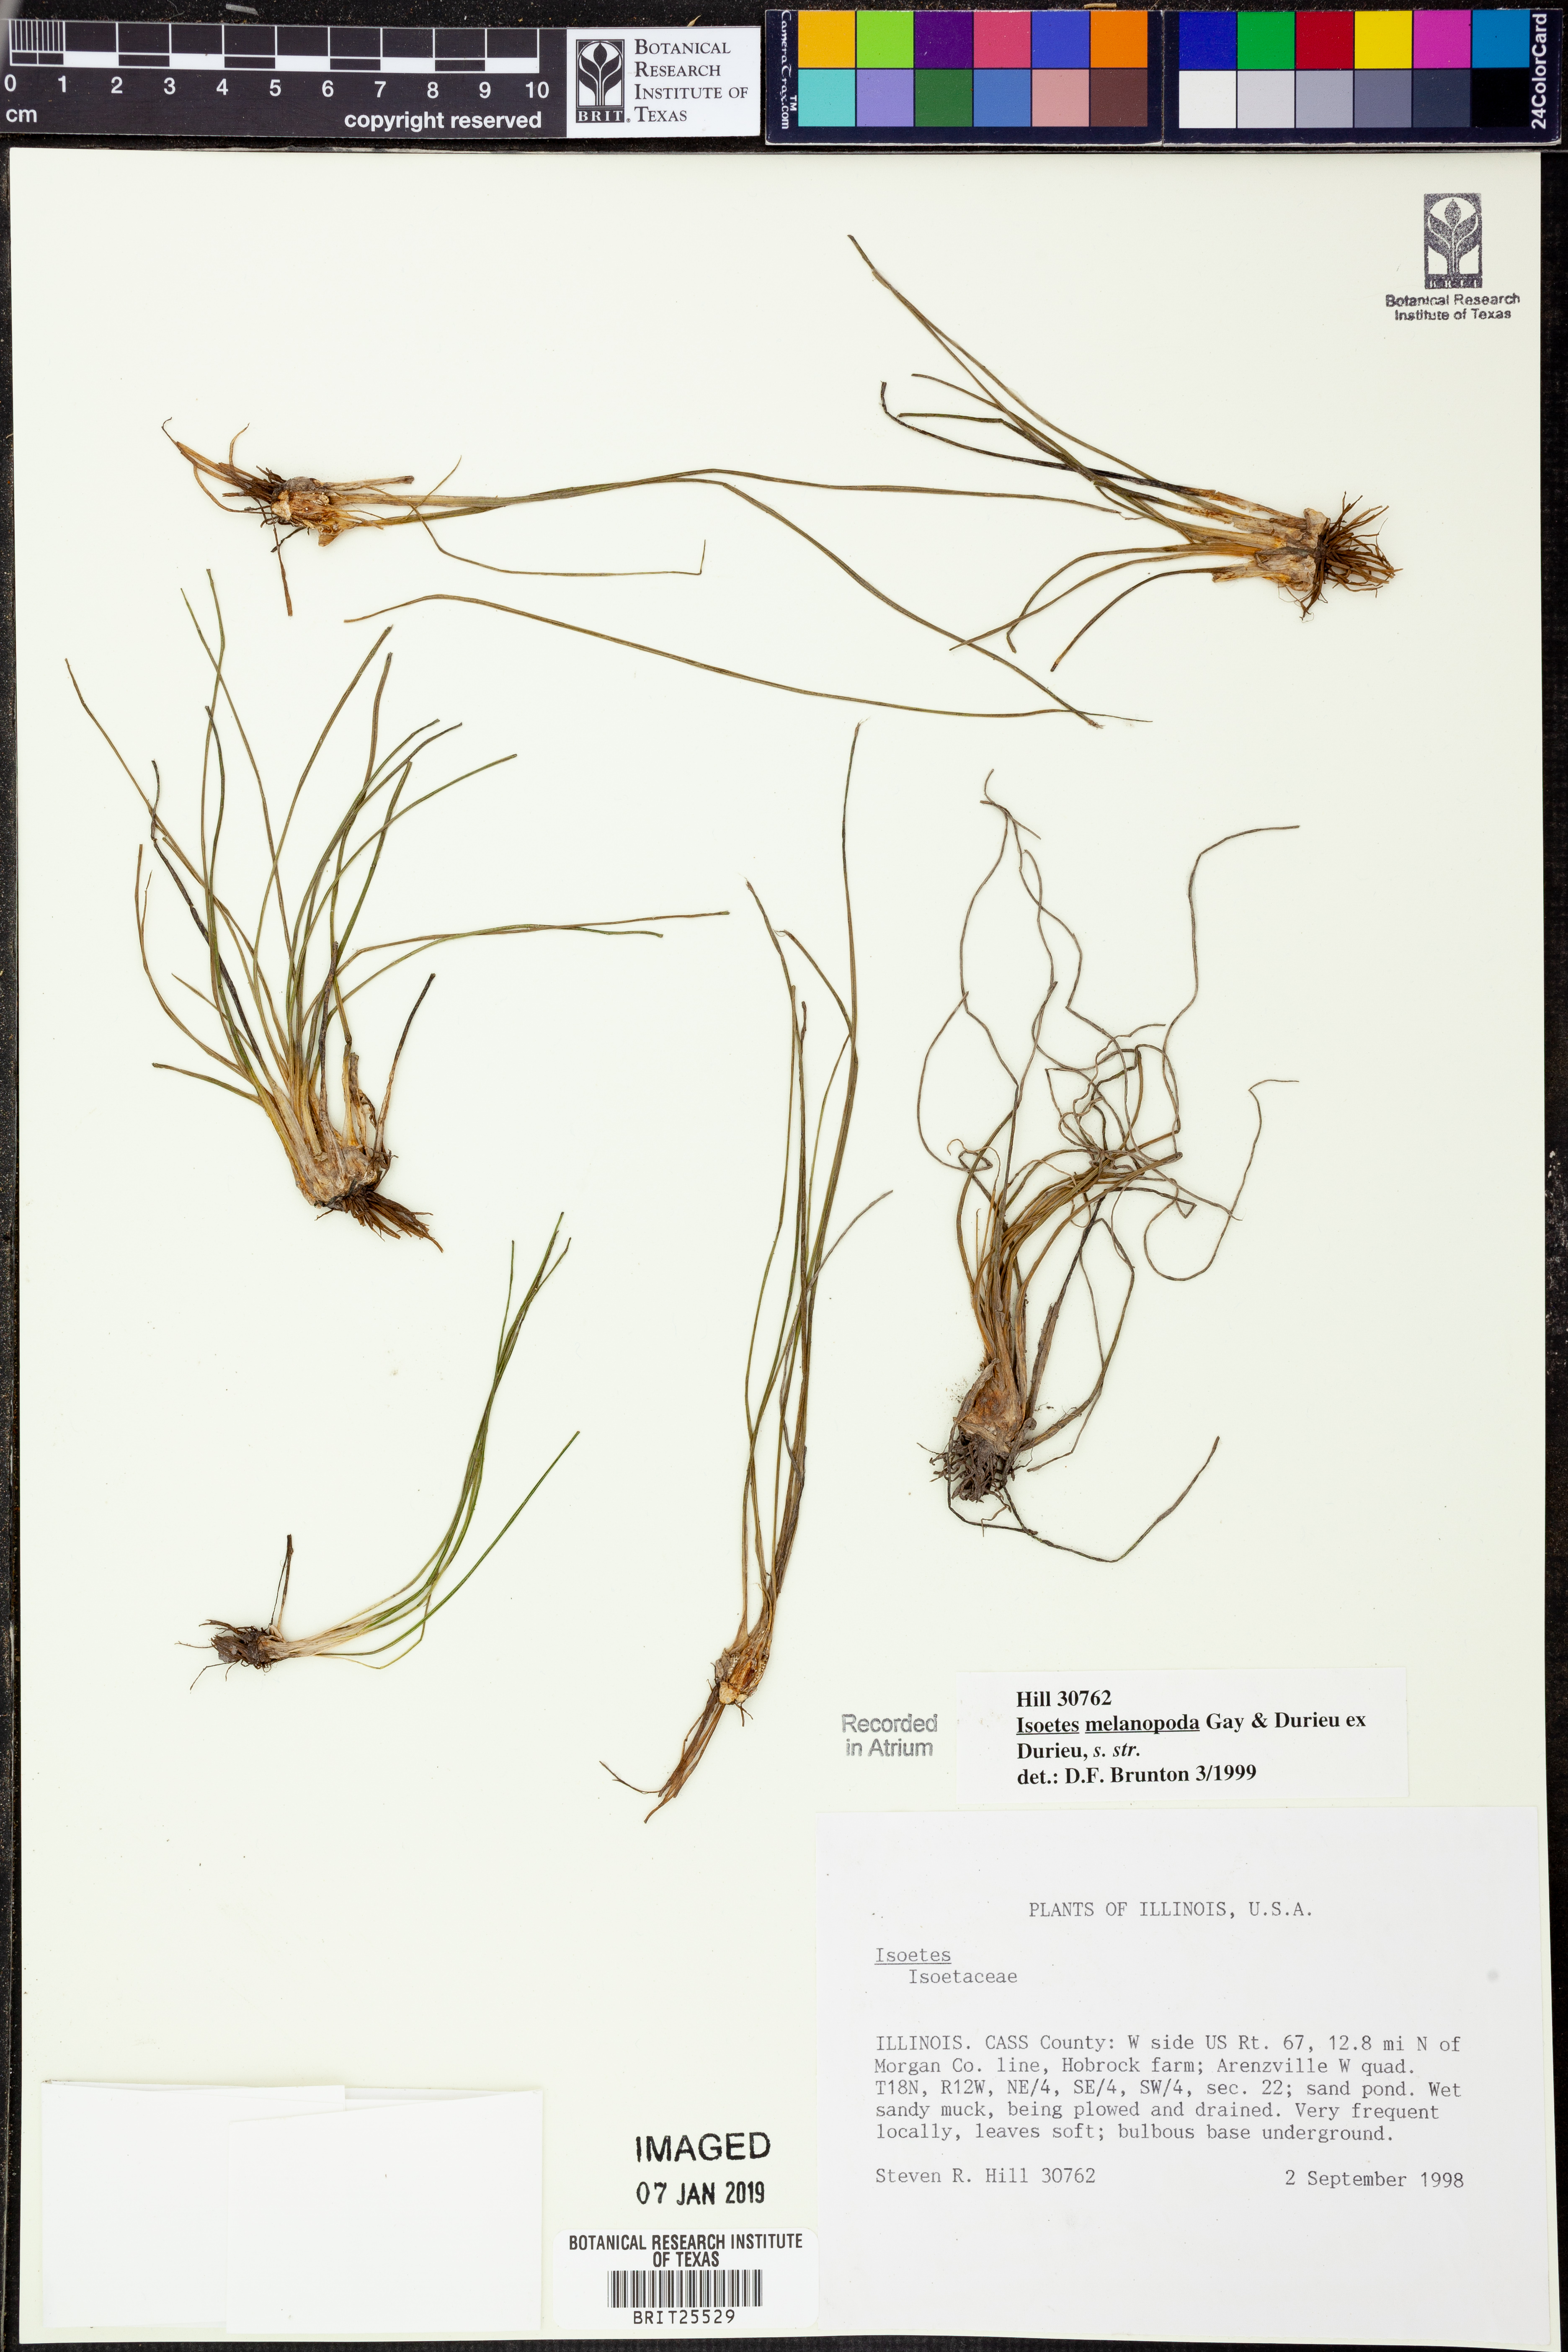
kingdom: Plantae
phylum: Tracheophyta
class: Lycopodiopsida
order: Isoetales
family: Isoetaceae
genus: Isoetes
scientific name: Isoetes melanopoda
